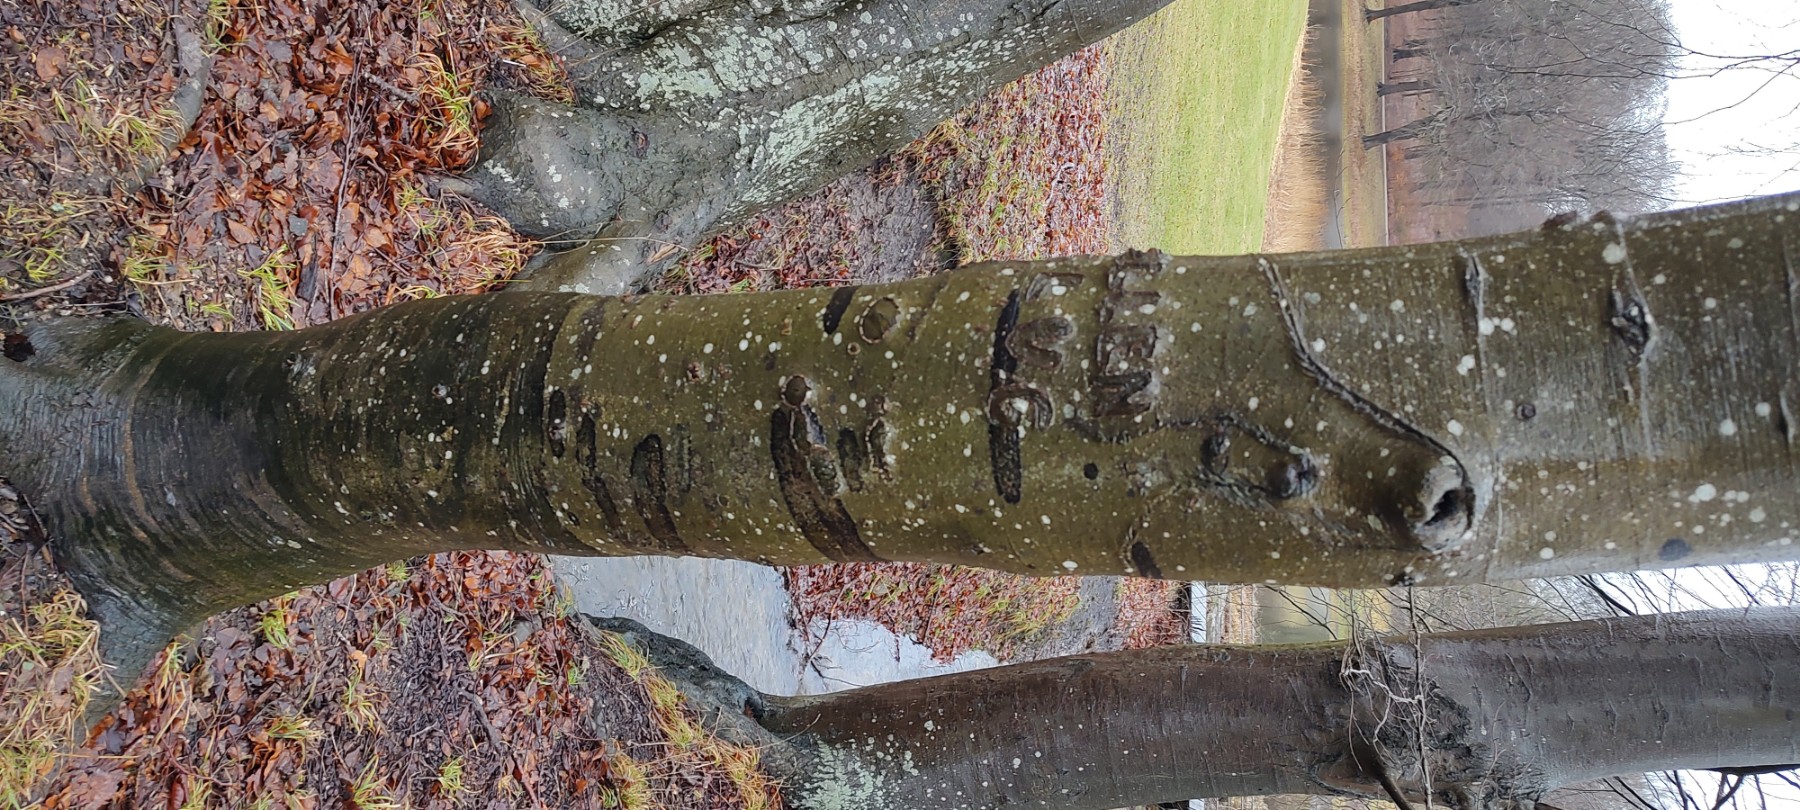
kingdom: Fungi
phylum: Ascomycota
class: Leotiomycetes
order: Rhytismatales
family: Ascodichaenaceae
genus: Ascodichaena
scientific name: Ascodichaena rugosa
